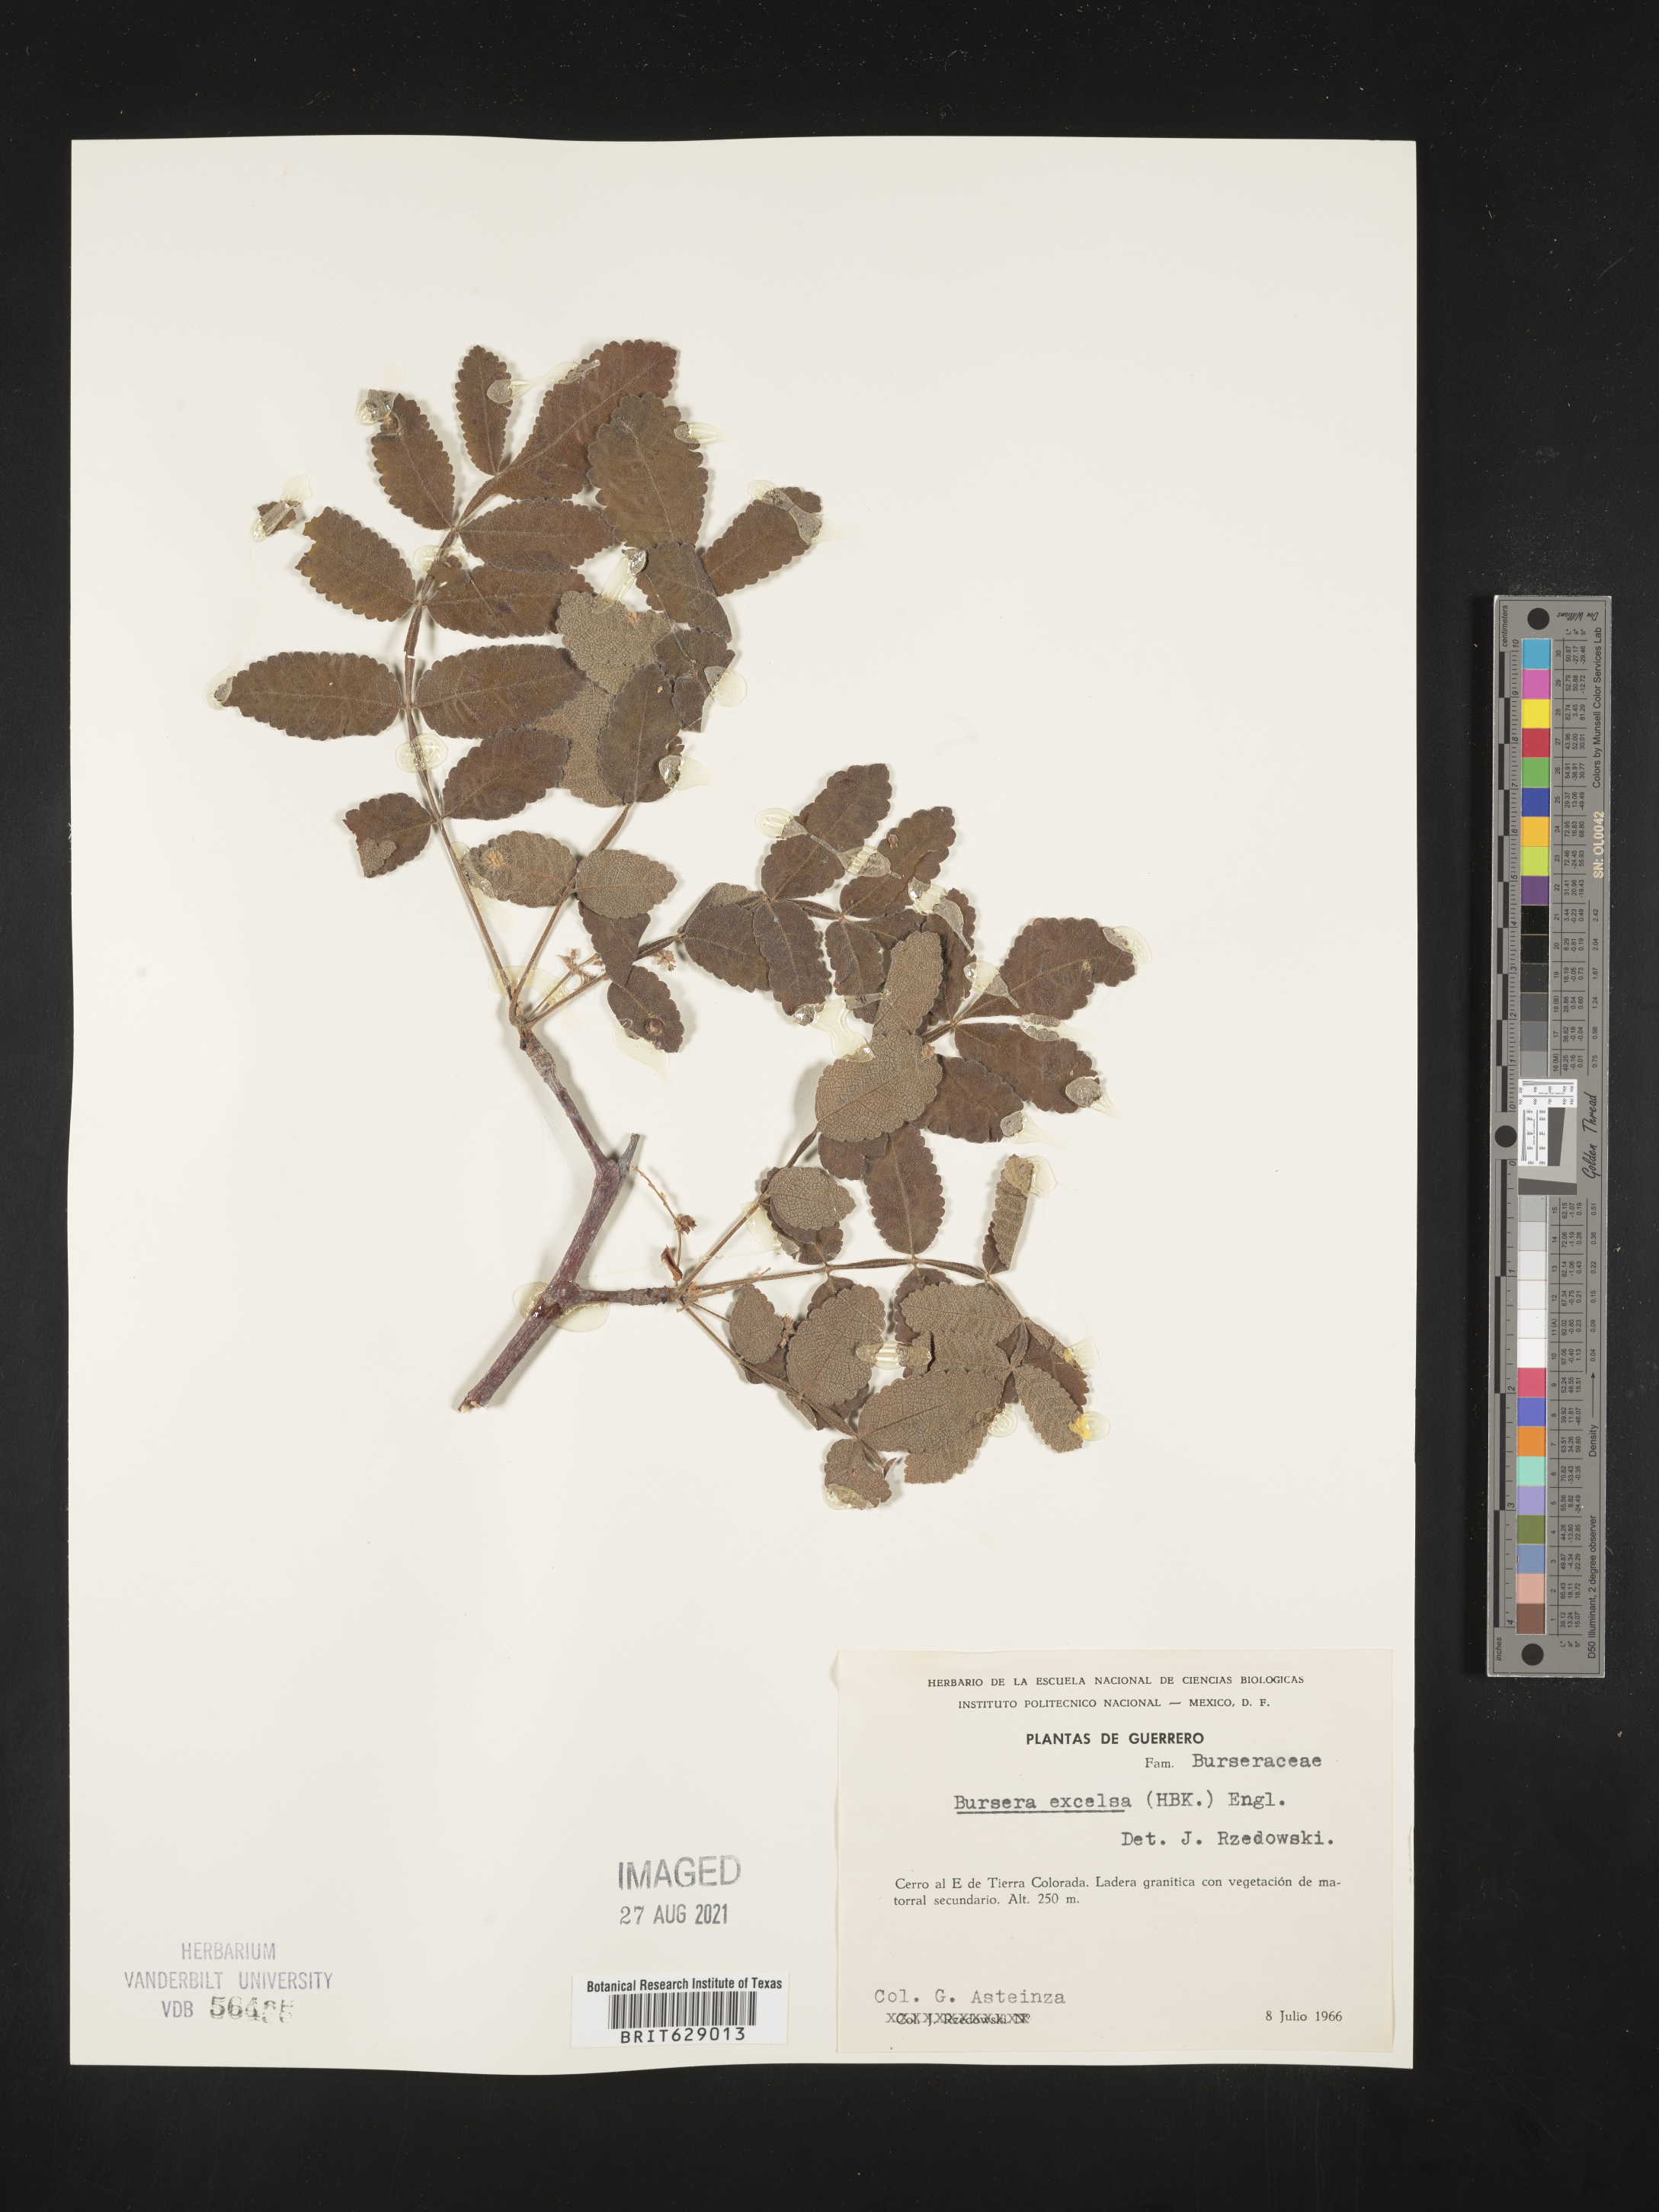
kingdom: Plantae
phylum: Tracheophyta
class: Magnoliopsida
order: Sapindales
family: Burseraceae
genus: Bursera
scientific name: Bursera
